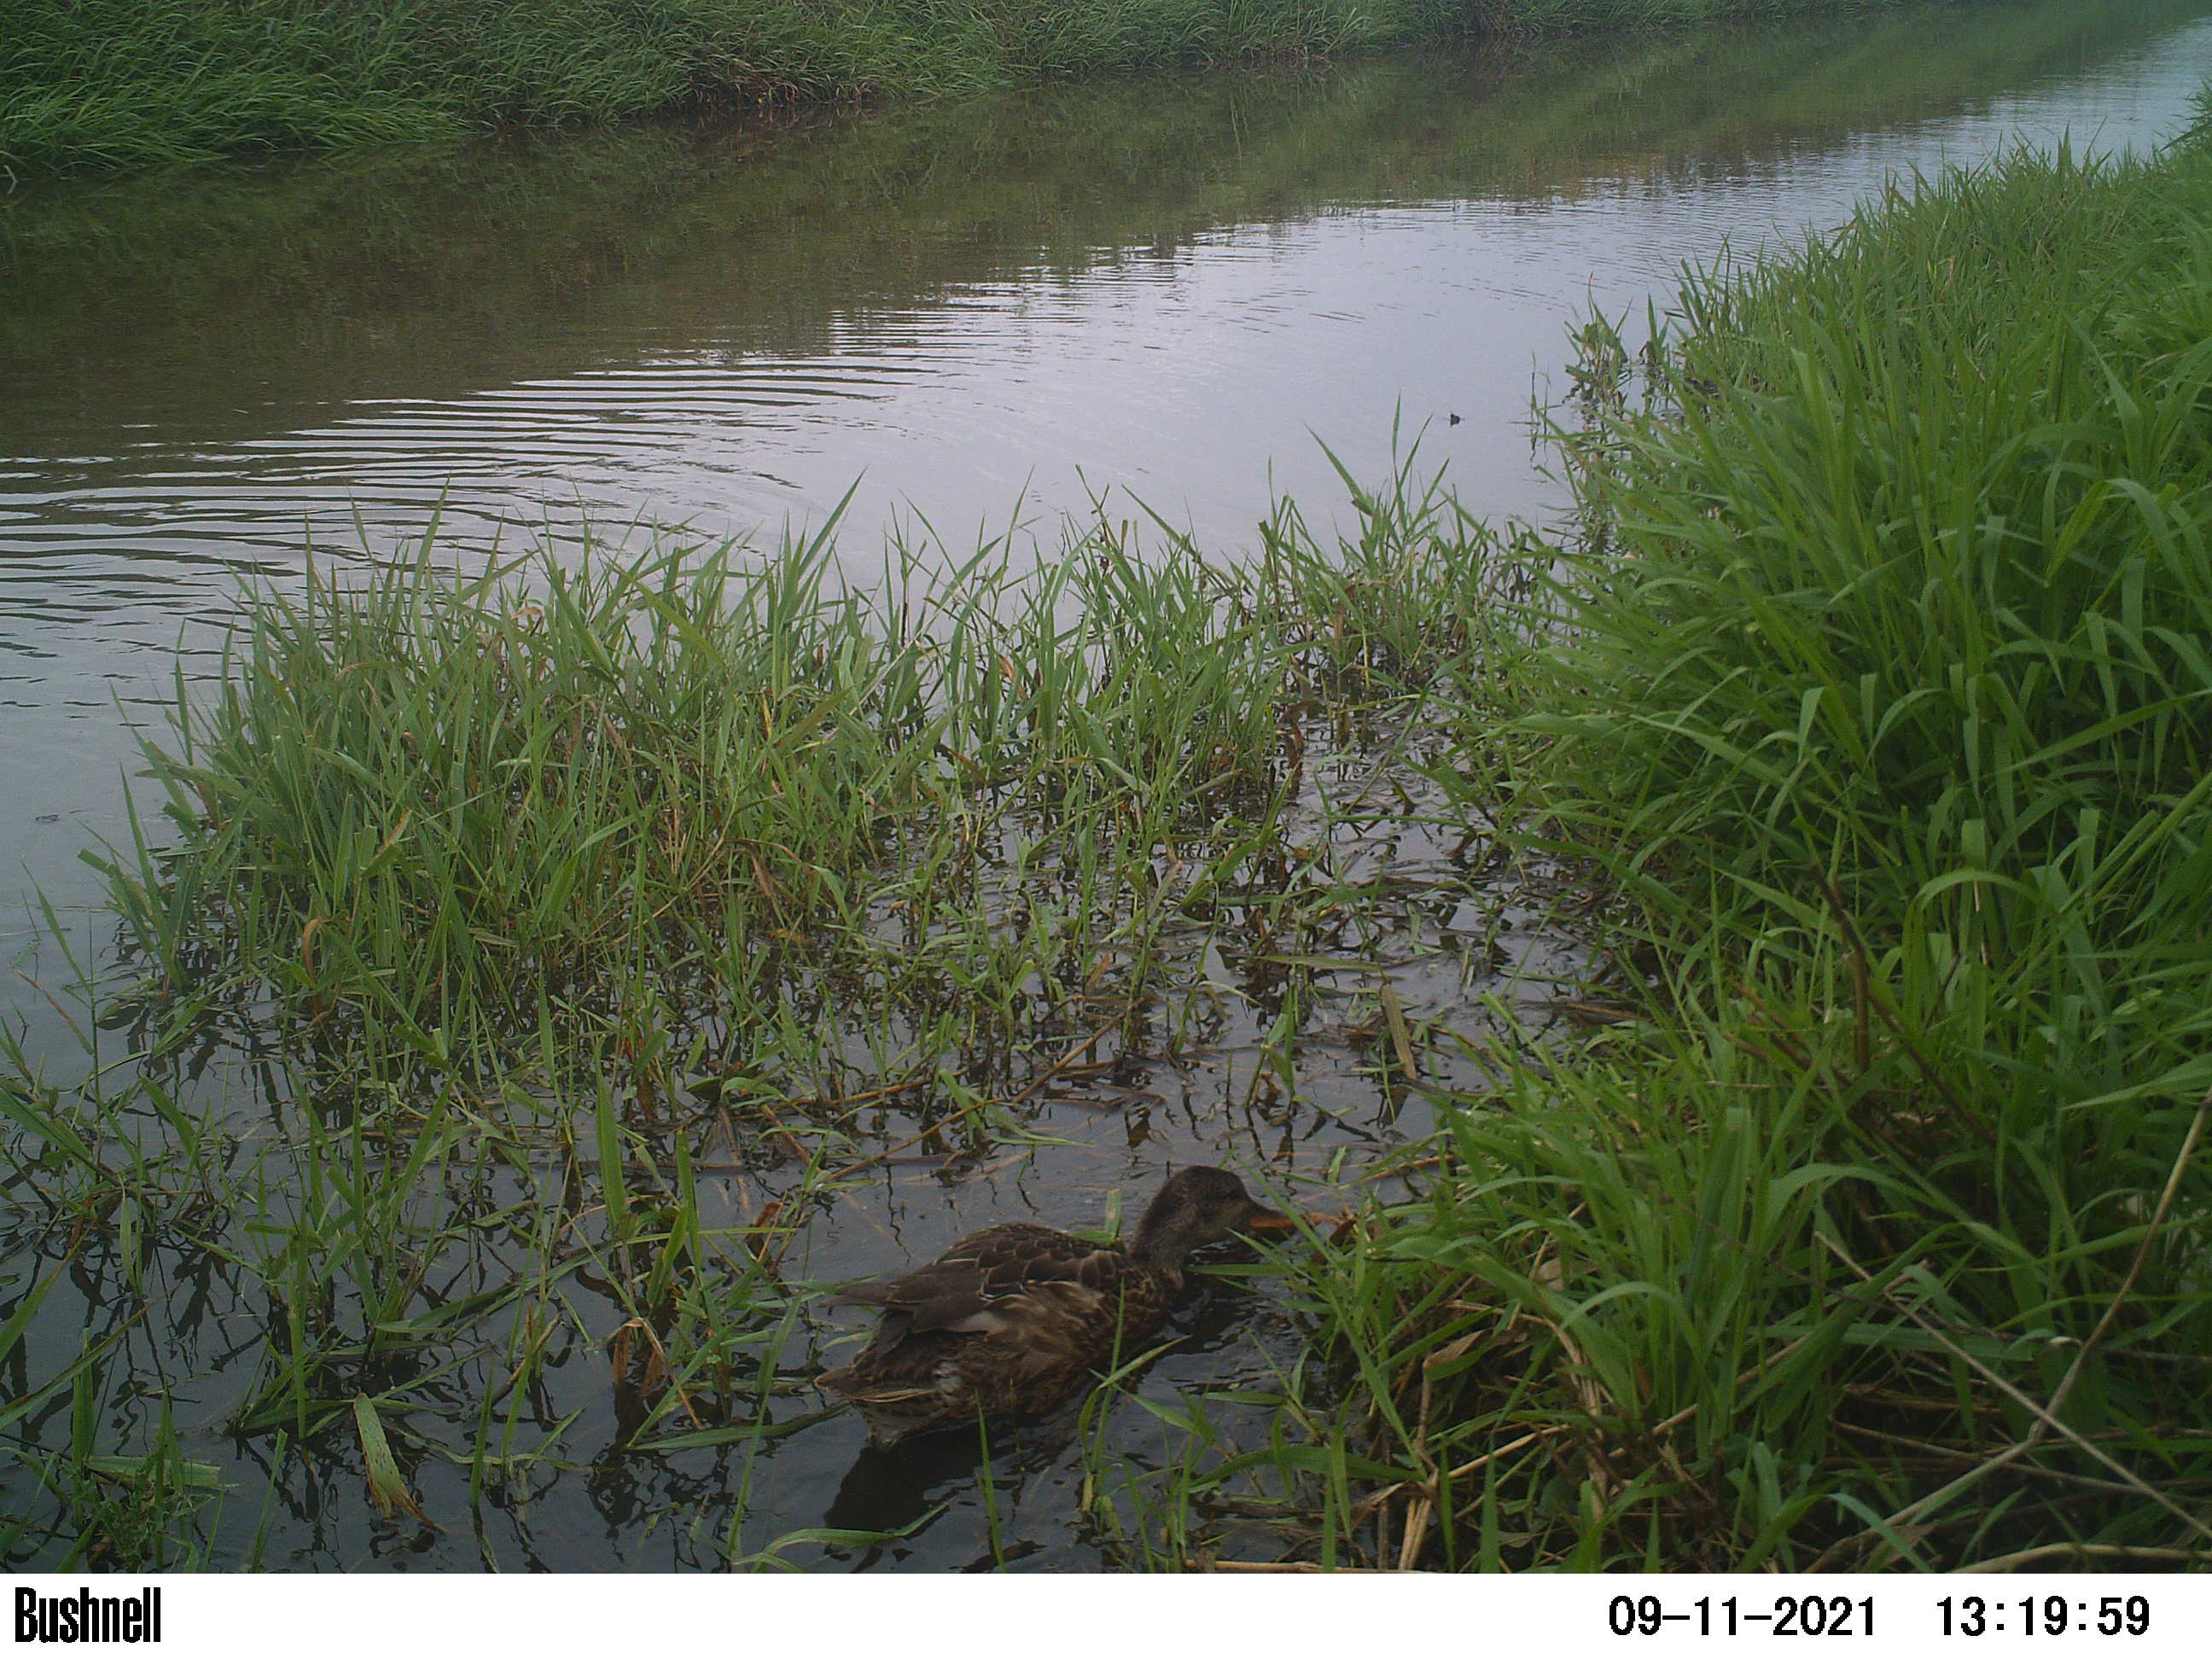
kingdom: Animalia
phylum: Chordata
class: Aves
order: Anseriformes
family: Anatidae
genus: Anas
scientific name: Anas
